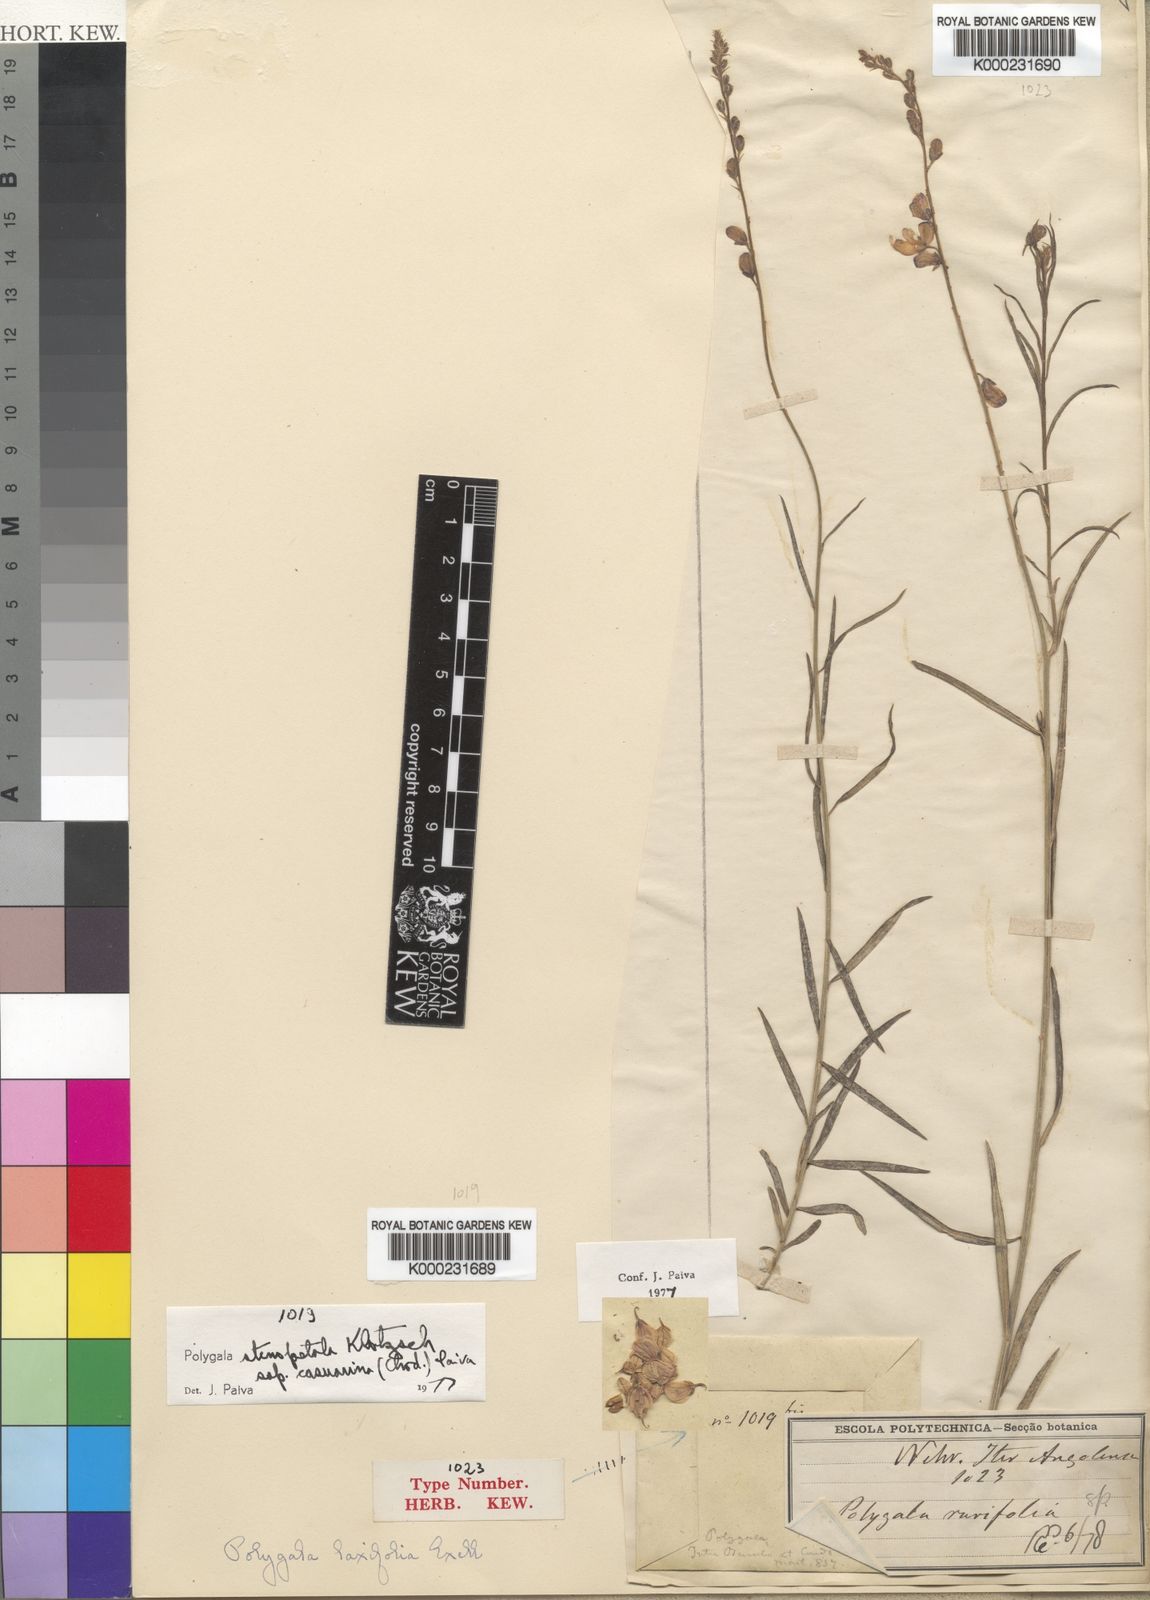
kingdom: Plantae
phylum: Tracheophyta
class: Magnoliopsida
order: Fabales
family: Polygalaceae
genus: Polygala
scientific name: Polygala stenopetala
